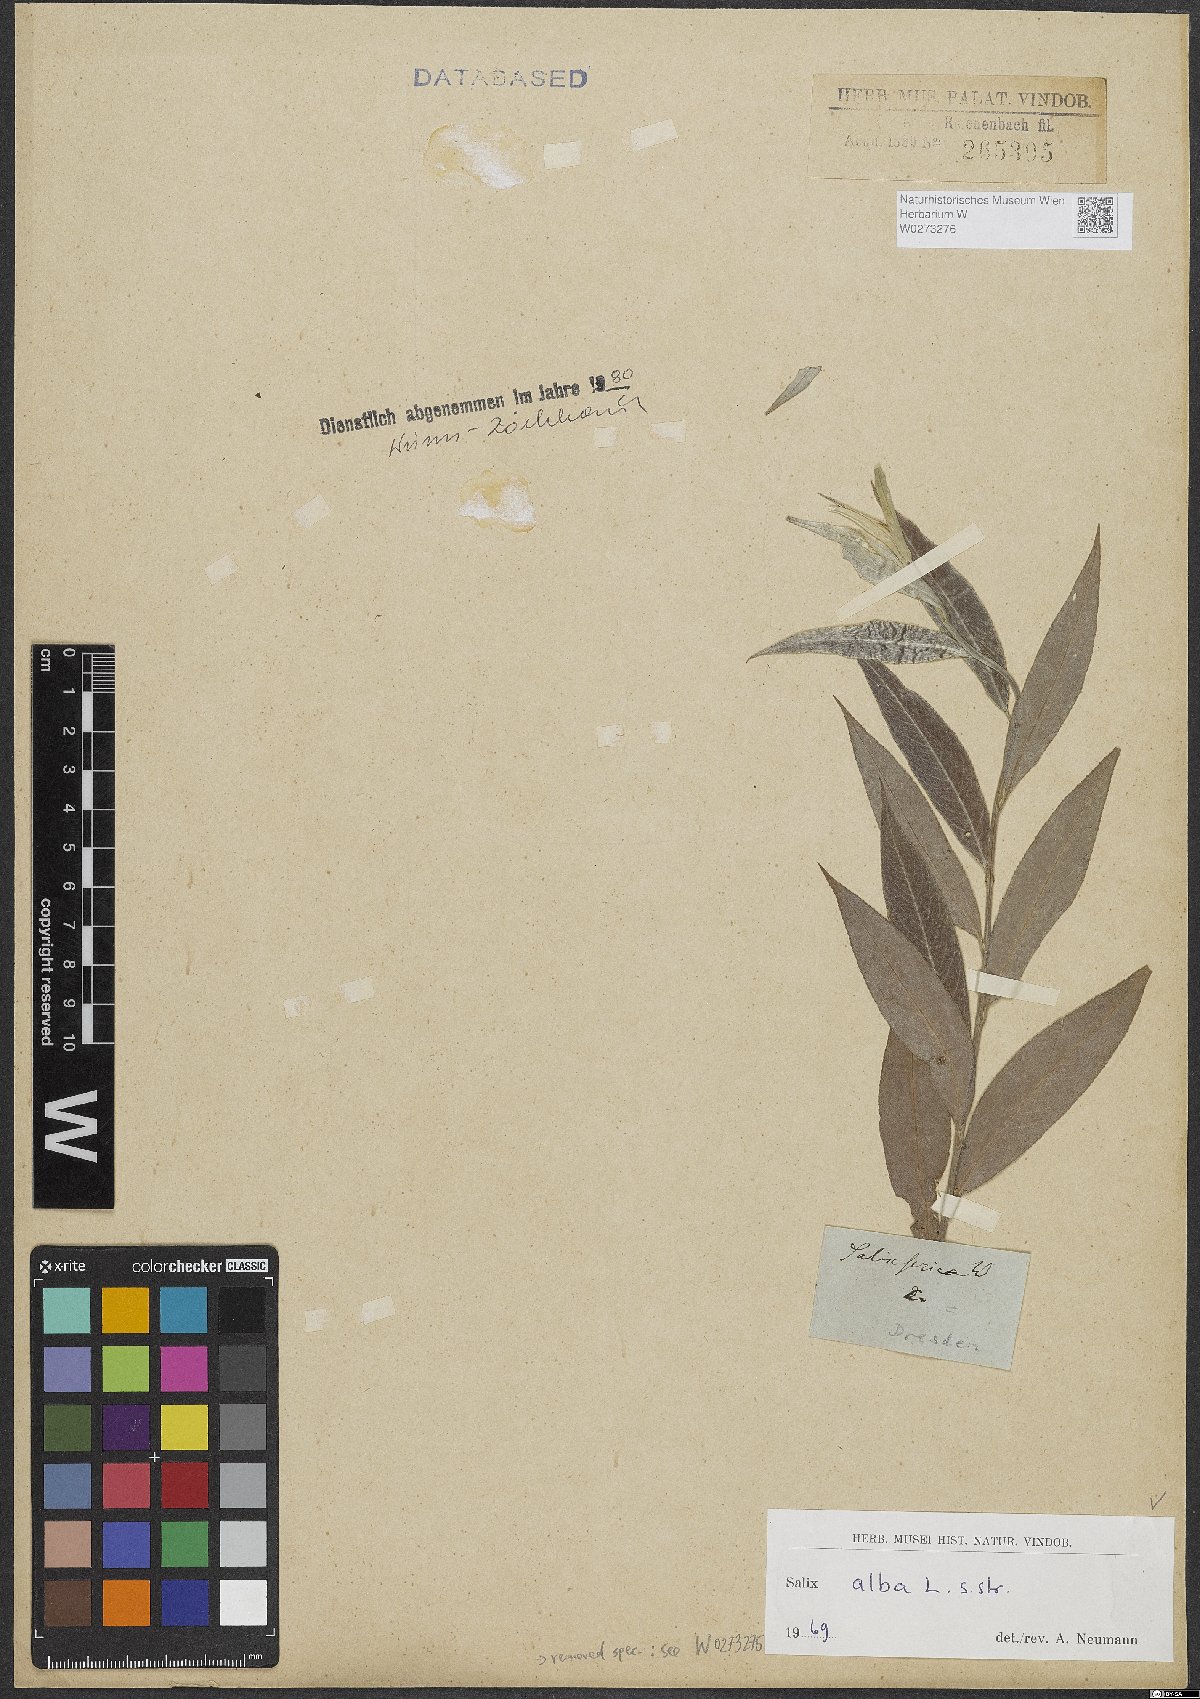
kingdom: Plantae
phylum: Tracheophyta
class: Magnoliopsida
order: Malpighiales
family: Salicaceae
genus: Salix
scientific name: Salix alba
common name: White willow
